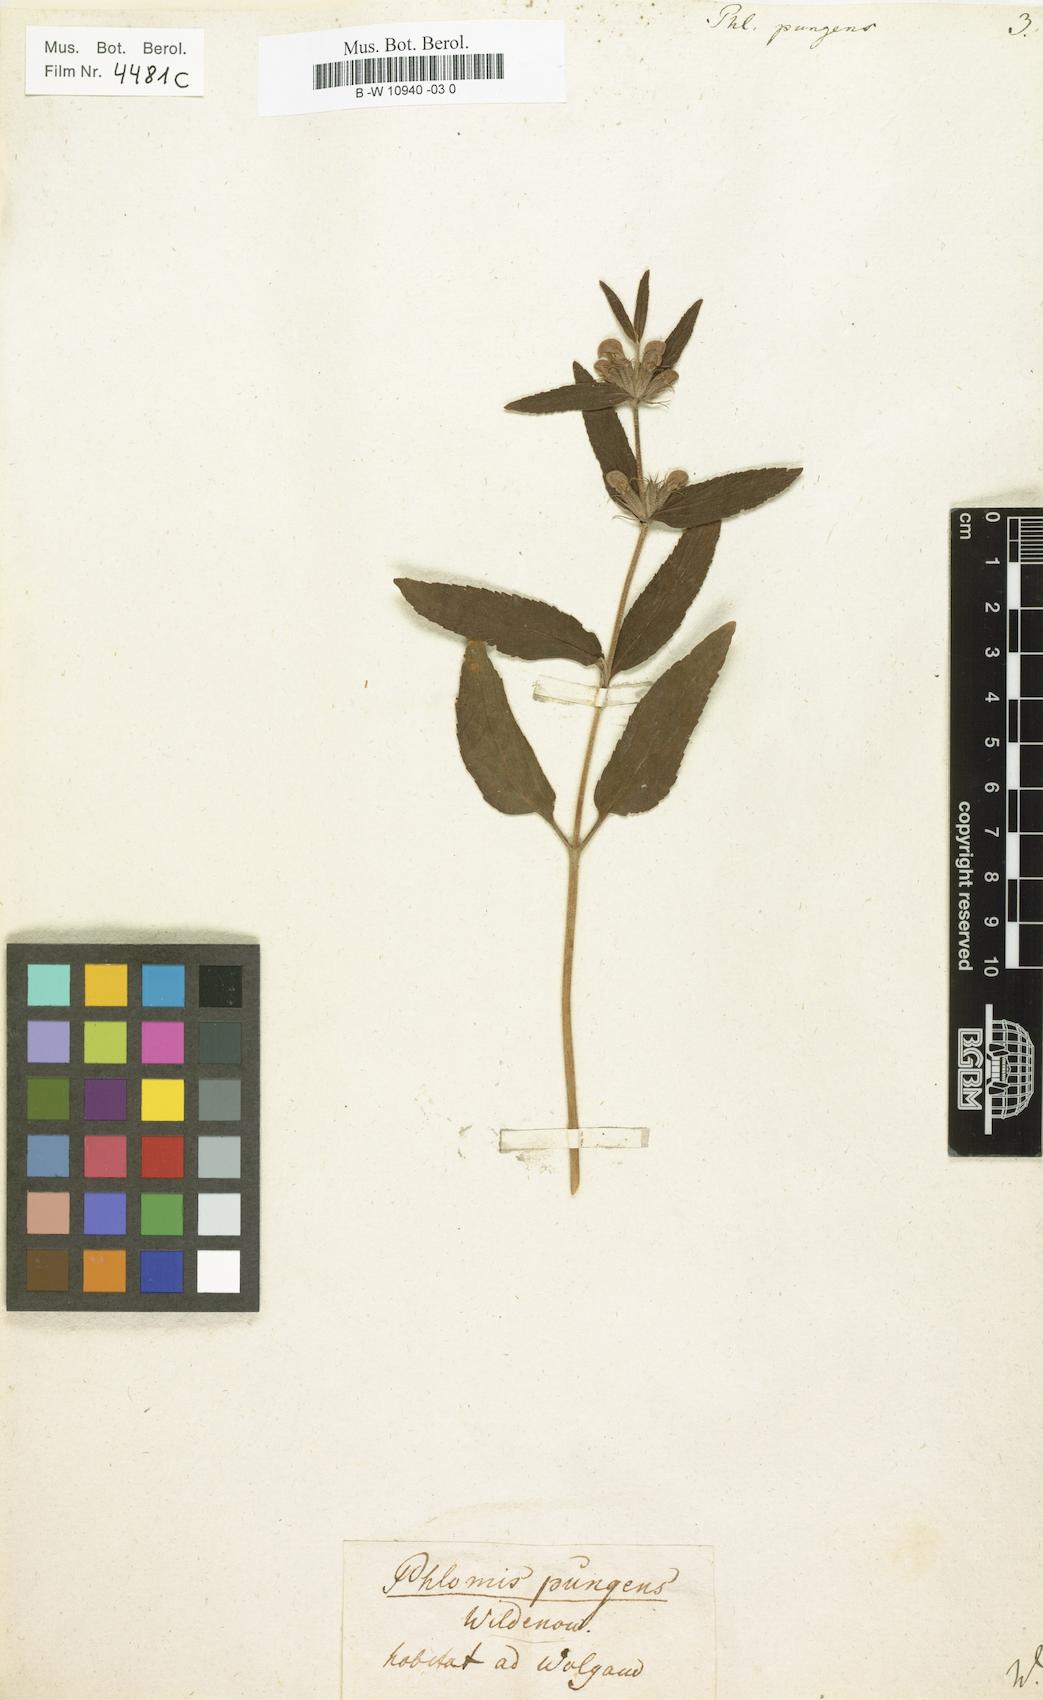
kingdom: Plantae
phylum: Tracheophyta
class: Magnoliopsida
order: Lamiales
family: Lamiaceae
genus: Phlomis
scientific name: Phlomis herba-venti
